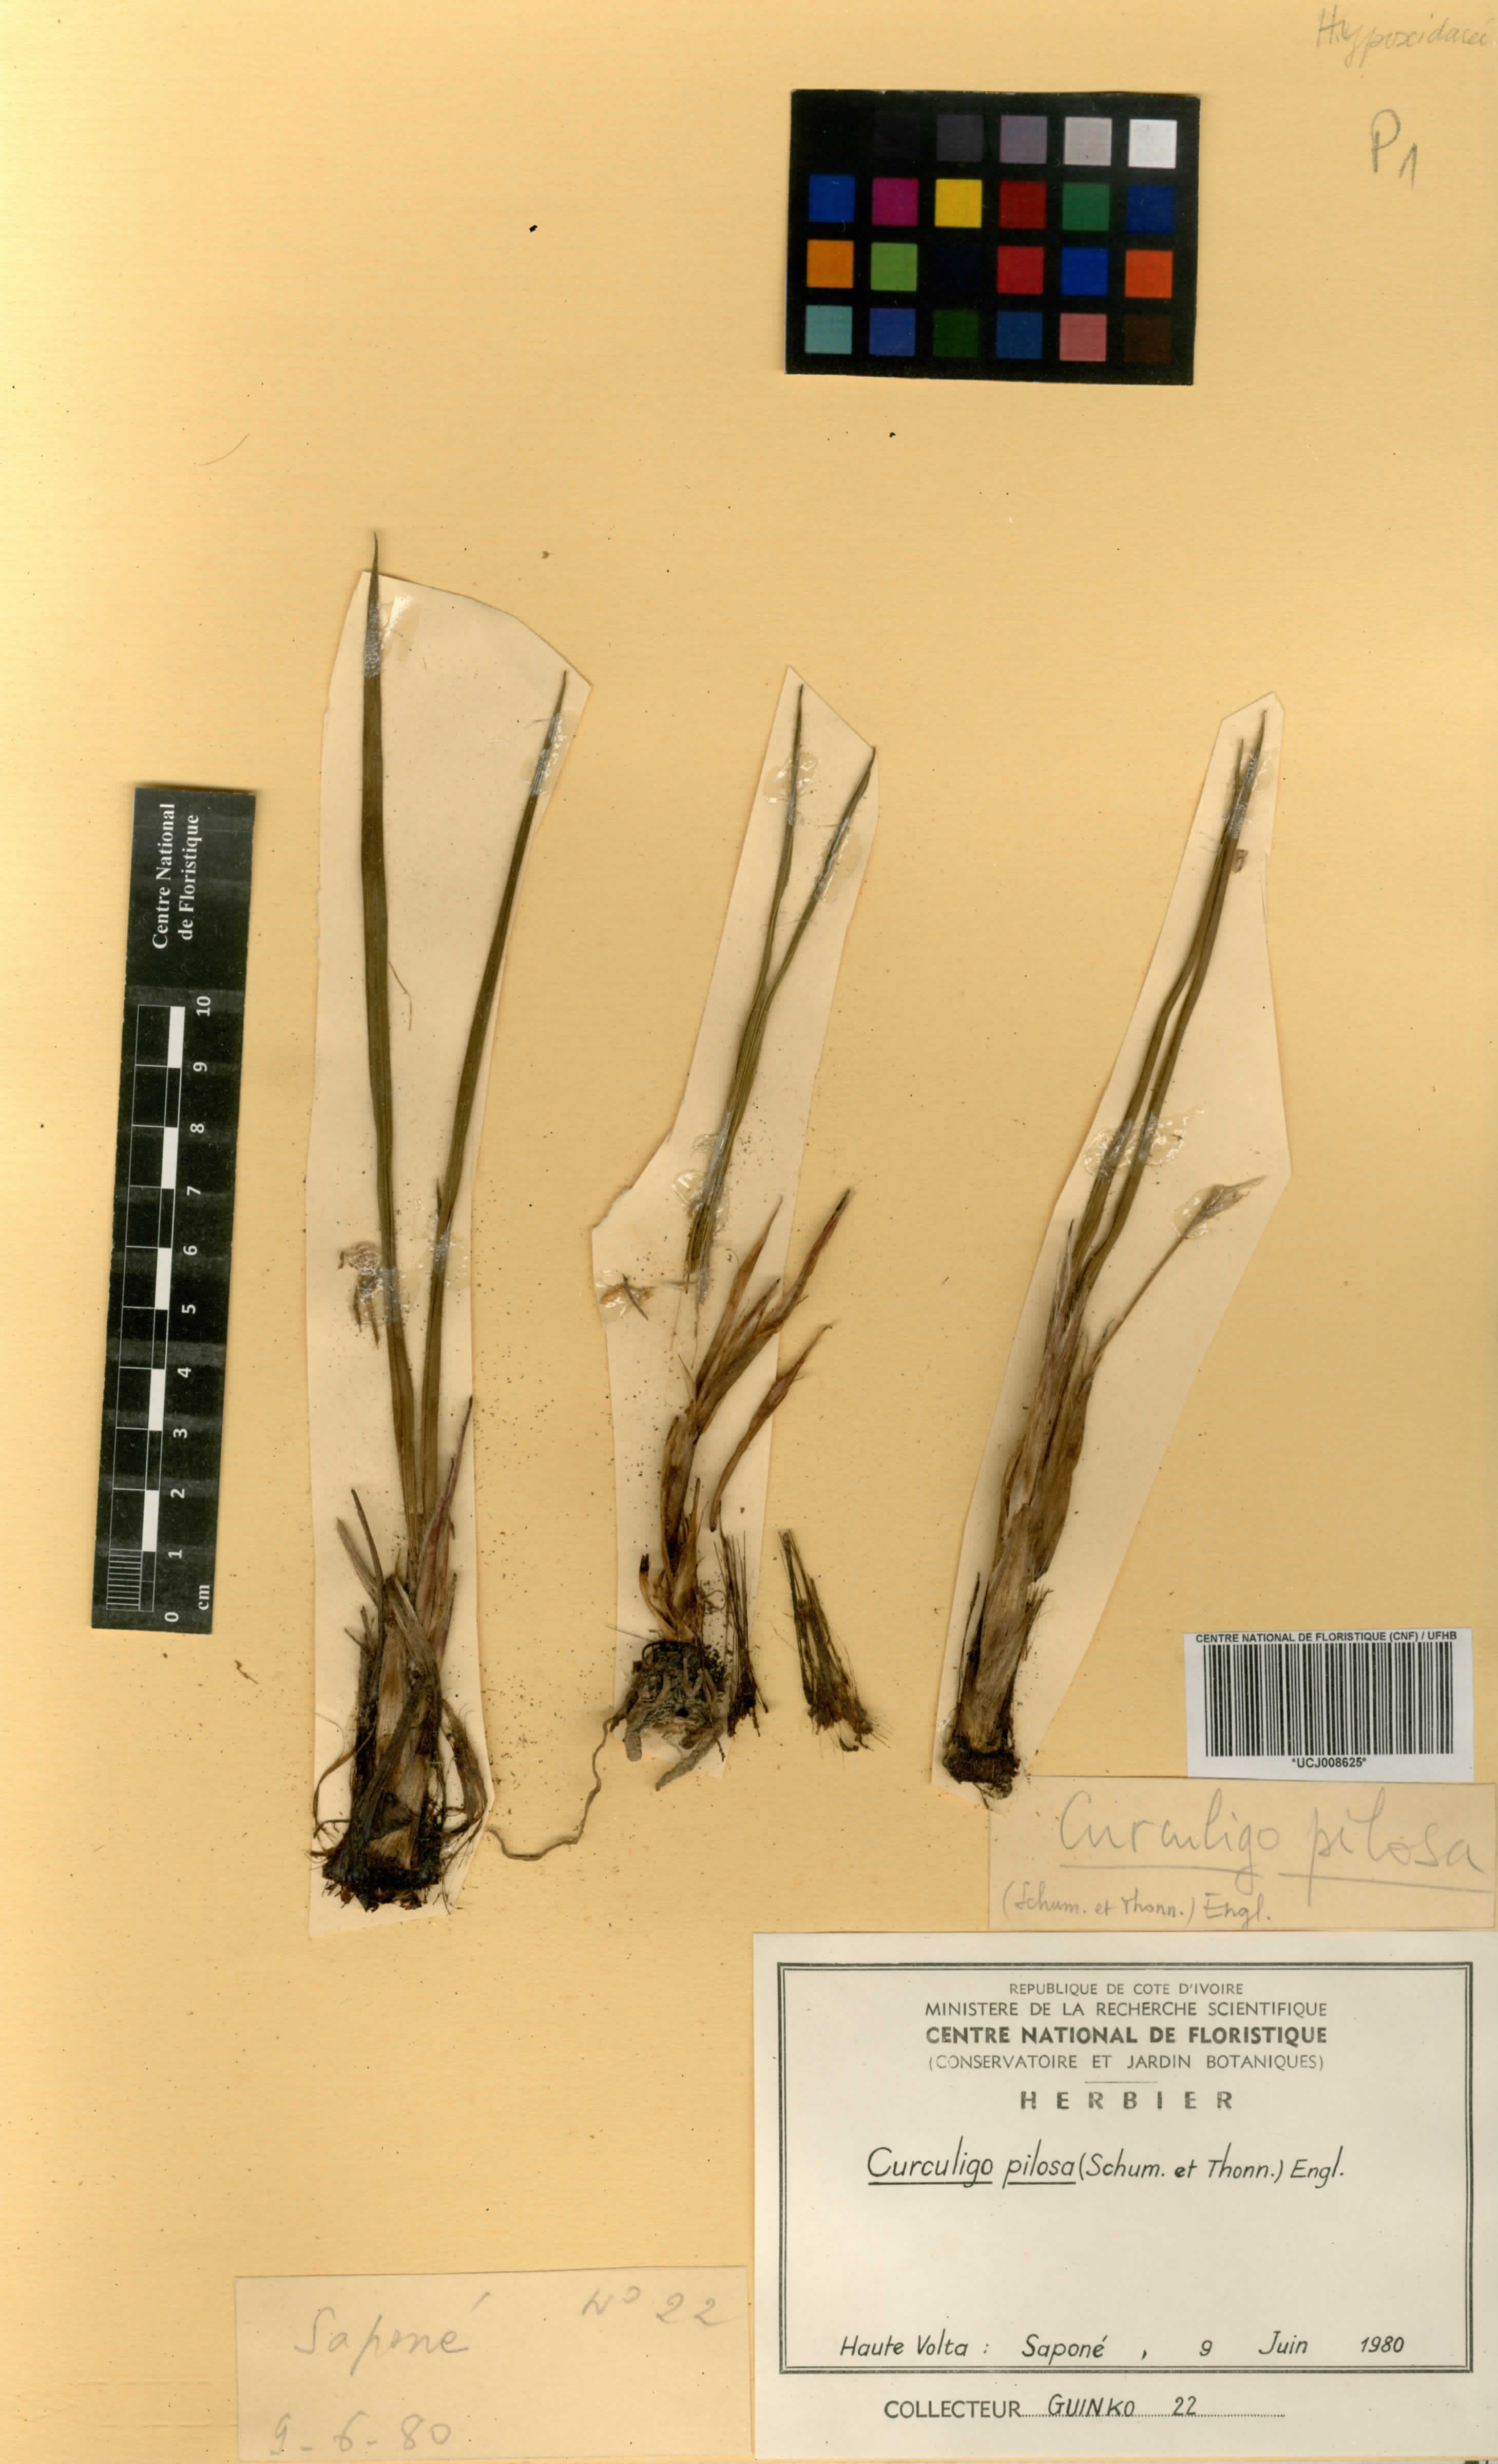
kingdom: Plantae
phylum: Tracheophyta
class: Liliopsida
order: Asparagales
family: Hypoxidaceae
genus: Curculigo
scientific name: Curculigo pilosa
